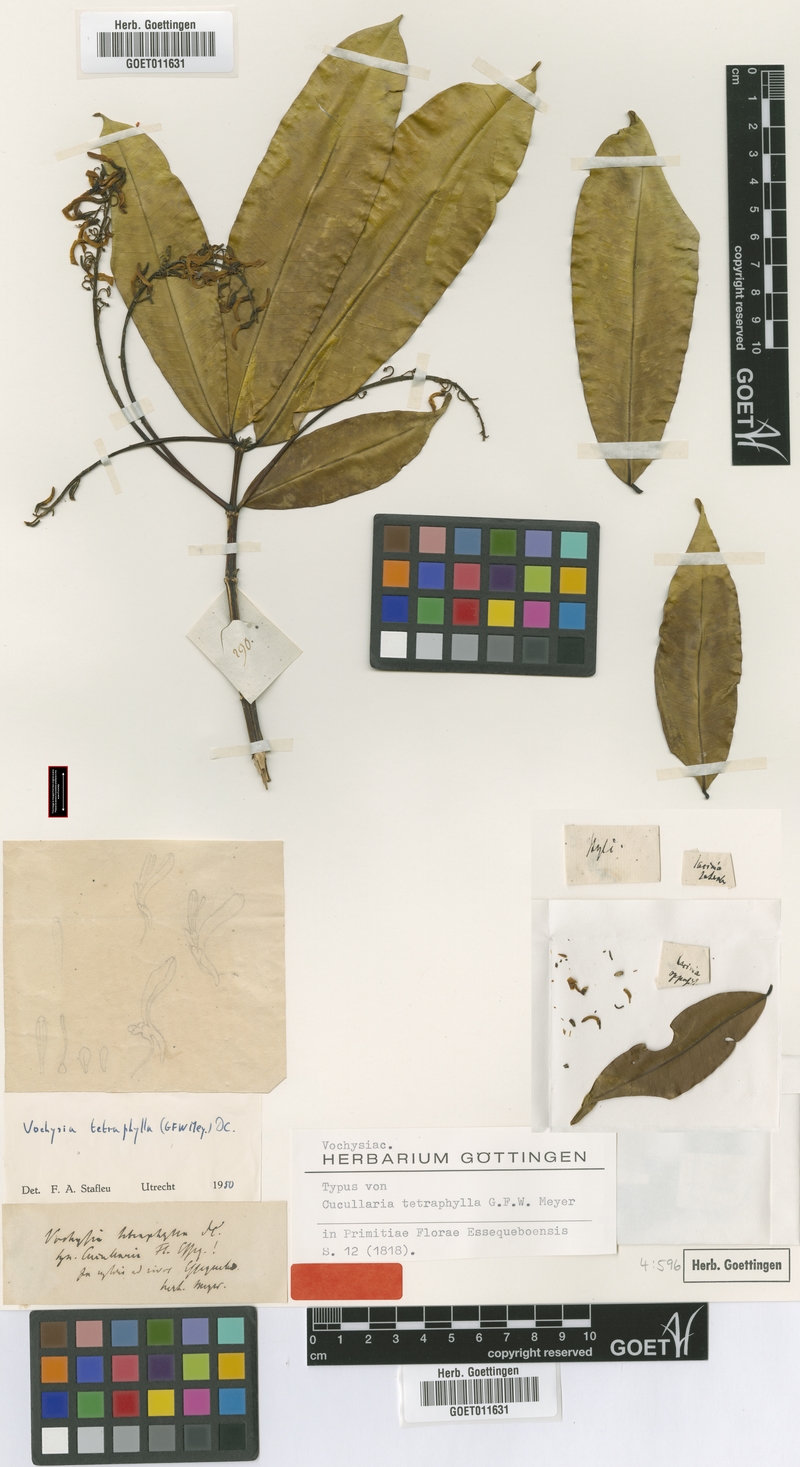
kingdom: Plantae
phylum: Tracheophyta
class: Magnoliopsida
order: Myrtales
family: Vochysiaceae
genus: Vochysia
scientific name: Vochysia tetraphylla
